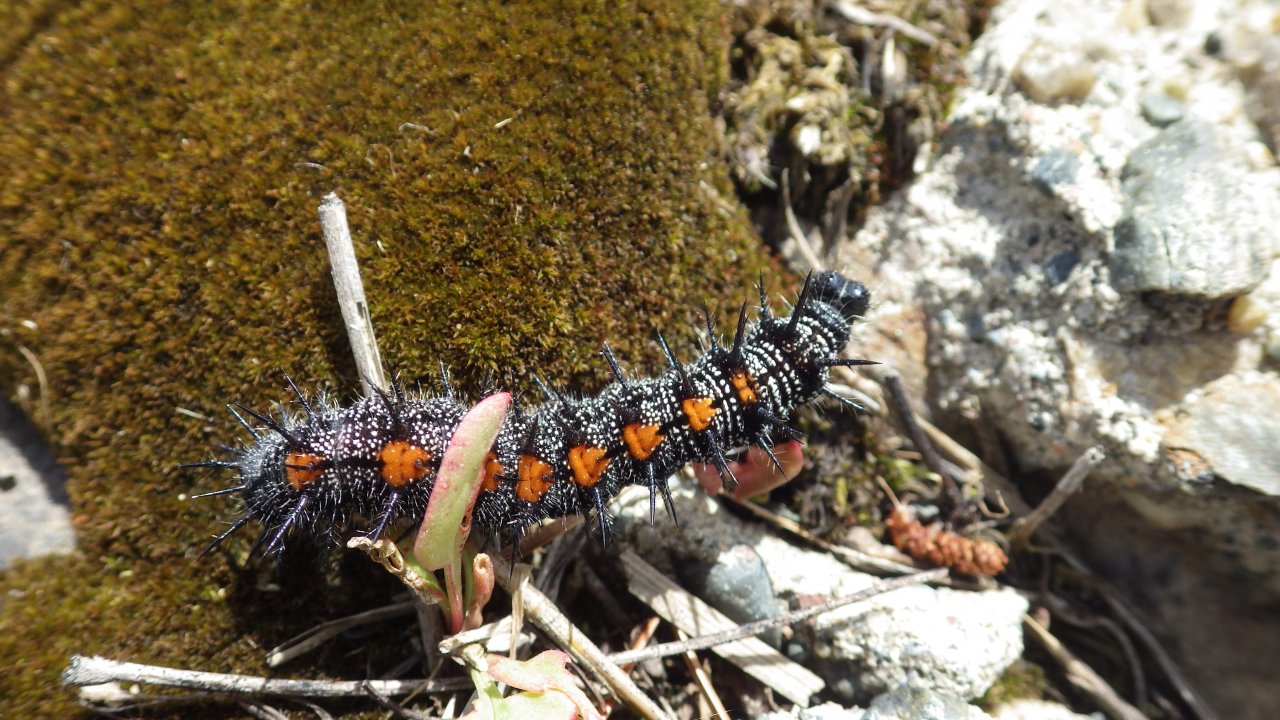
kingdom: Animalia
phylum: Arthropoda
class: Insecta
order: Lepidoptera
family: Nymphalidae
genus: Nymphalis
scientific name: Nymphalis antiopa
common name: Mourning Cloak
